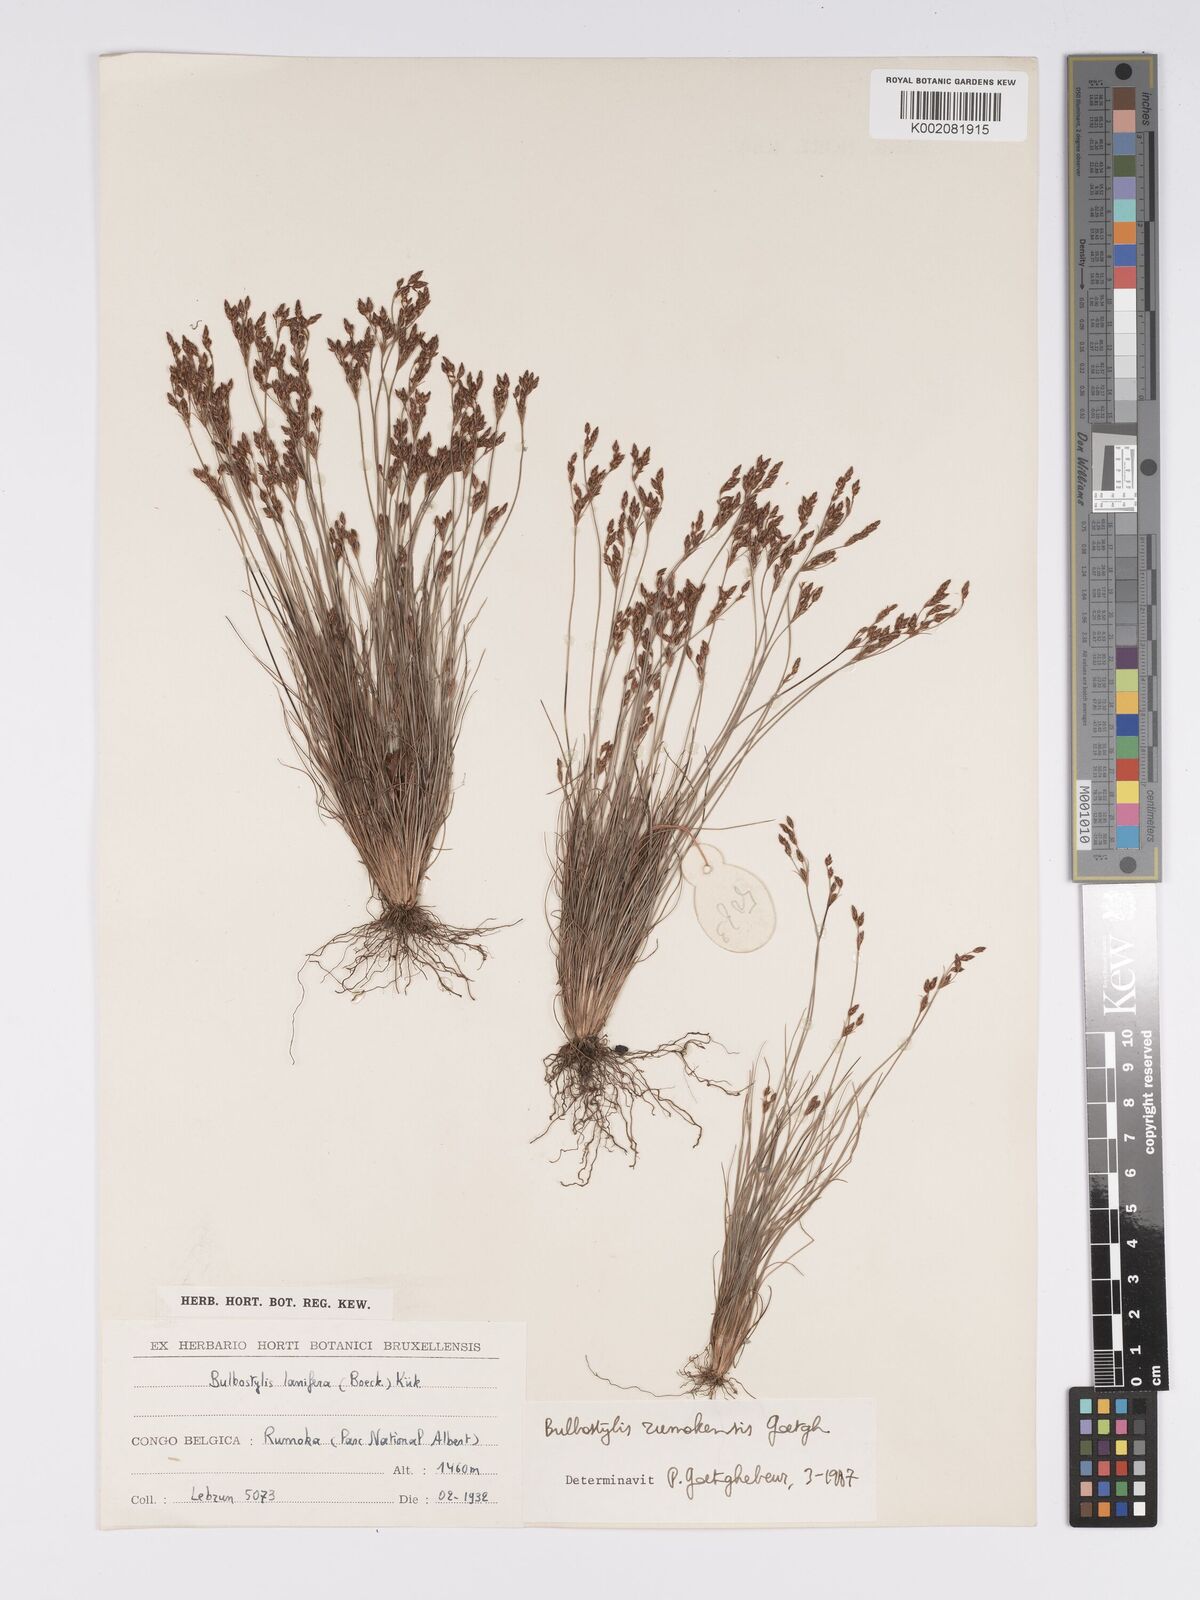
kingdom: Plantae
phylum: Tracheophyta
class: Liliopsida
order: Poales
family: Cyperaceae
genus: Bulbostylis
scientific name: Bulbostylis rumokensis
